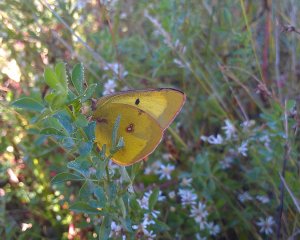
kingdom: Animalia
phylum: Arthropoda
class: Insecta
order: Lepidoptera
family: Pieridae
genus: Colias
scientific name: Colias philodice
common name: Clouded Sulphur
